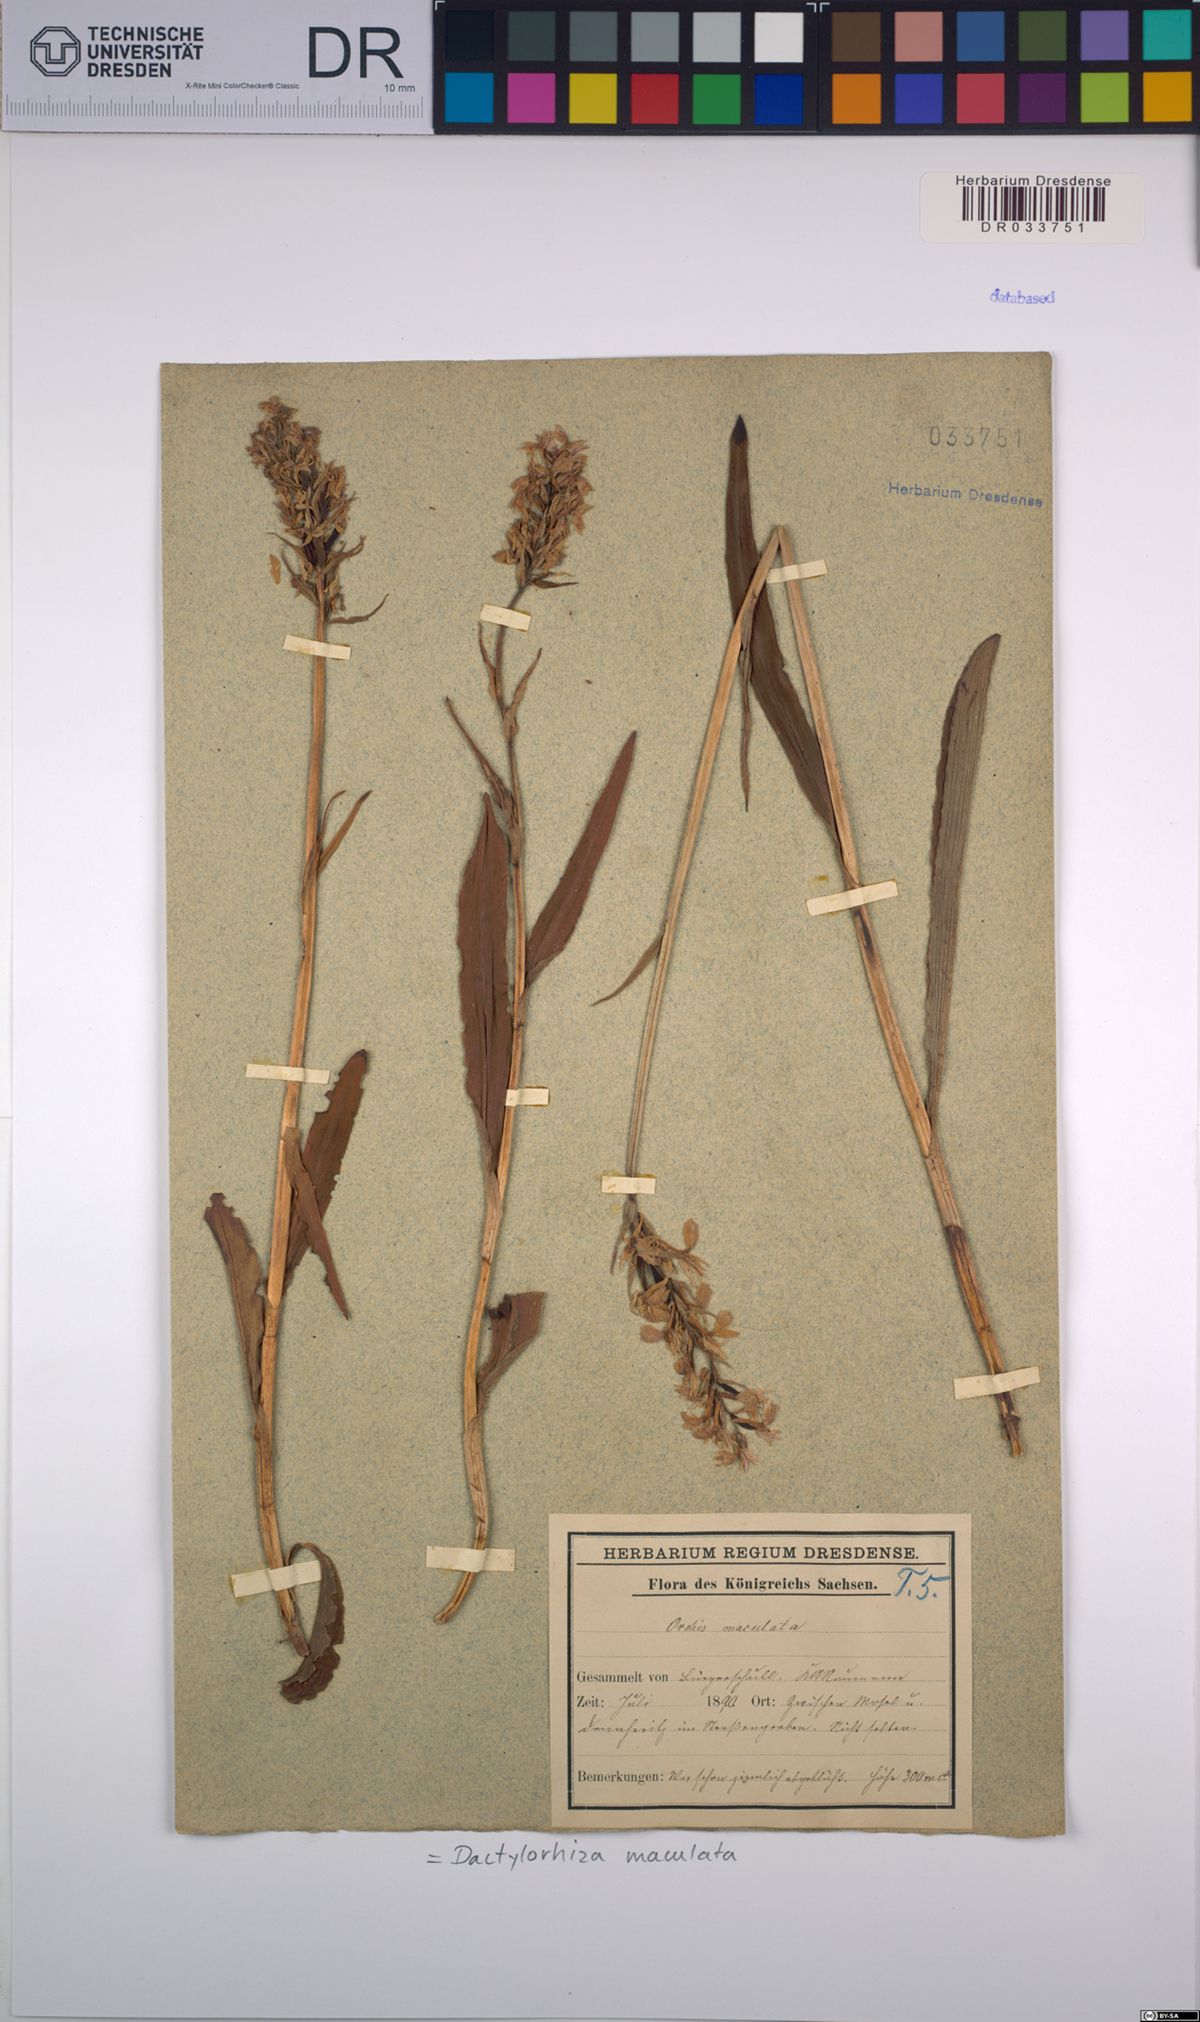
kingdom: Plantae
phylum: Tracheophyta
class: Liliopsida
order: Asparagales
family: Orchidaceae
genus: Dactylorhiza
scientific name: Dactylorhiza maculata
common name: Heath spotted-orchid
